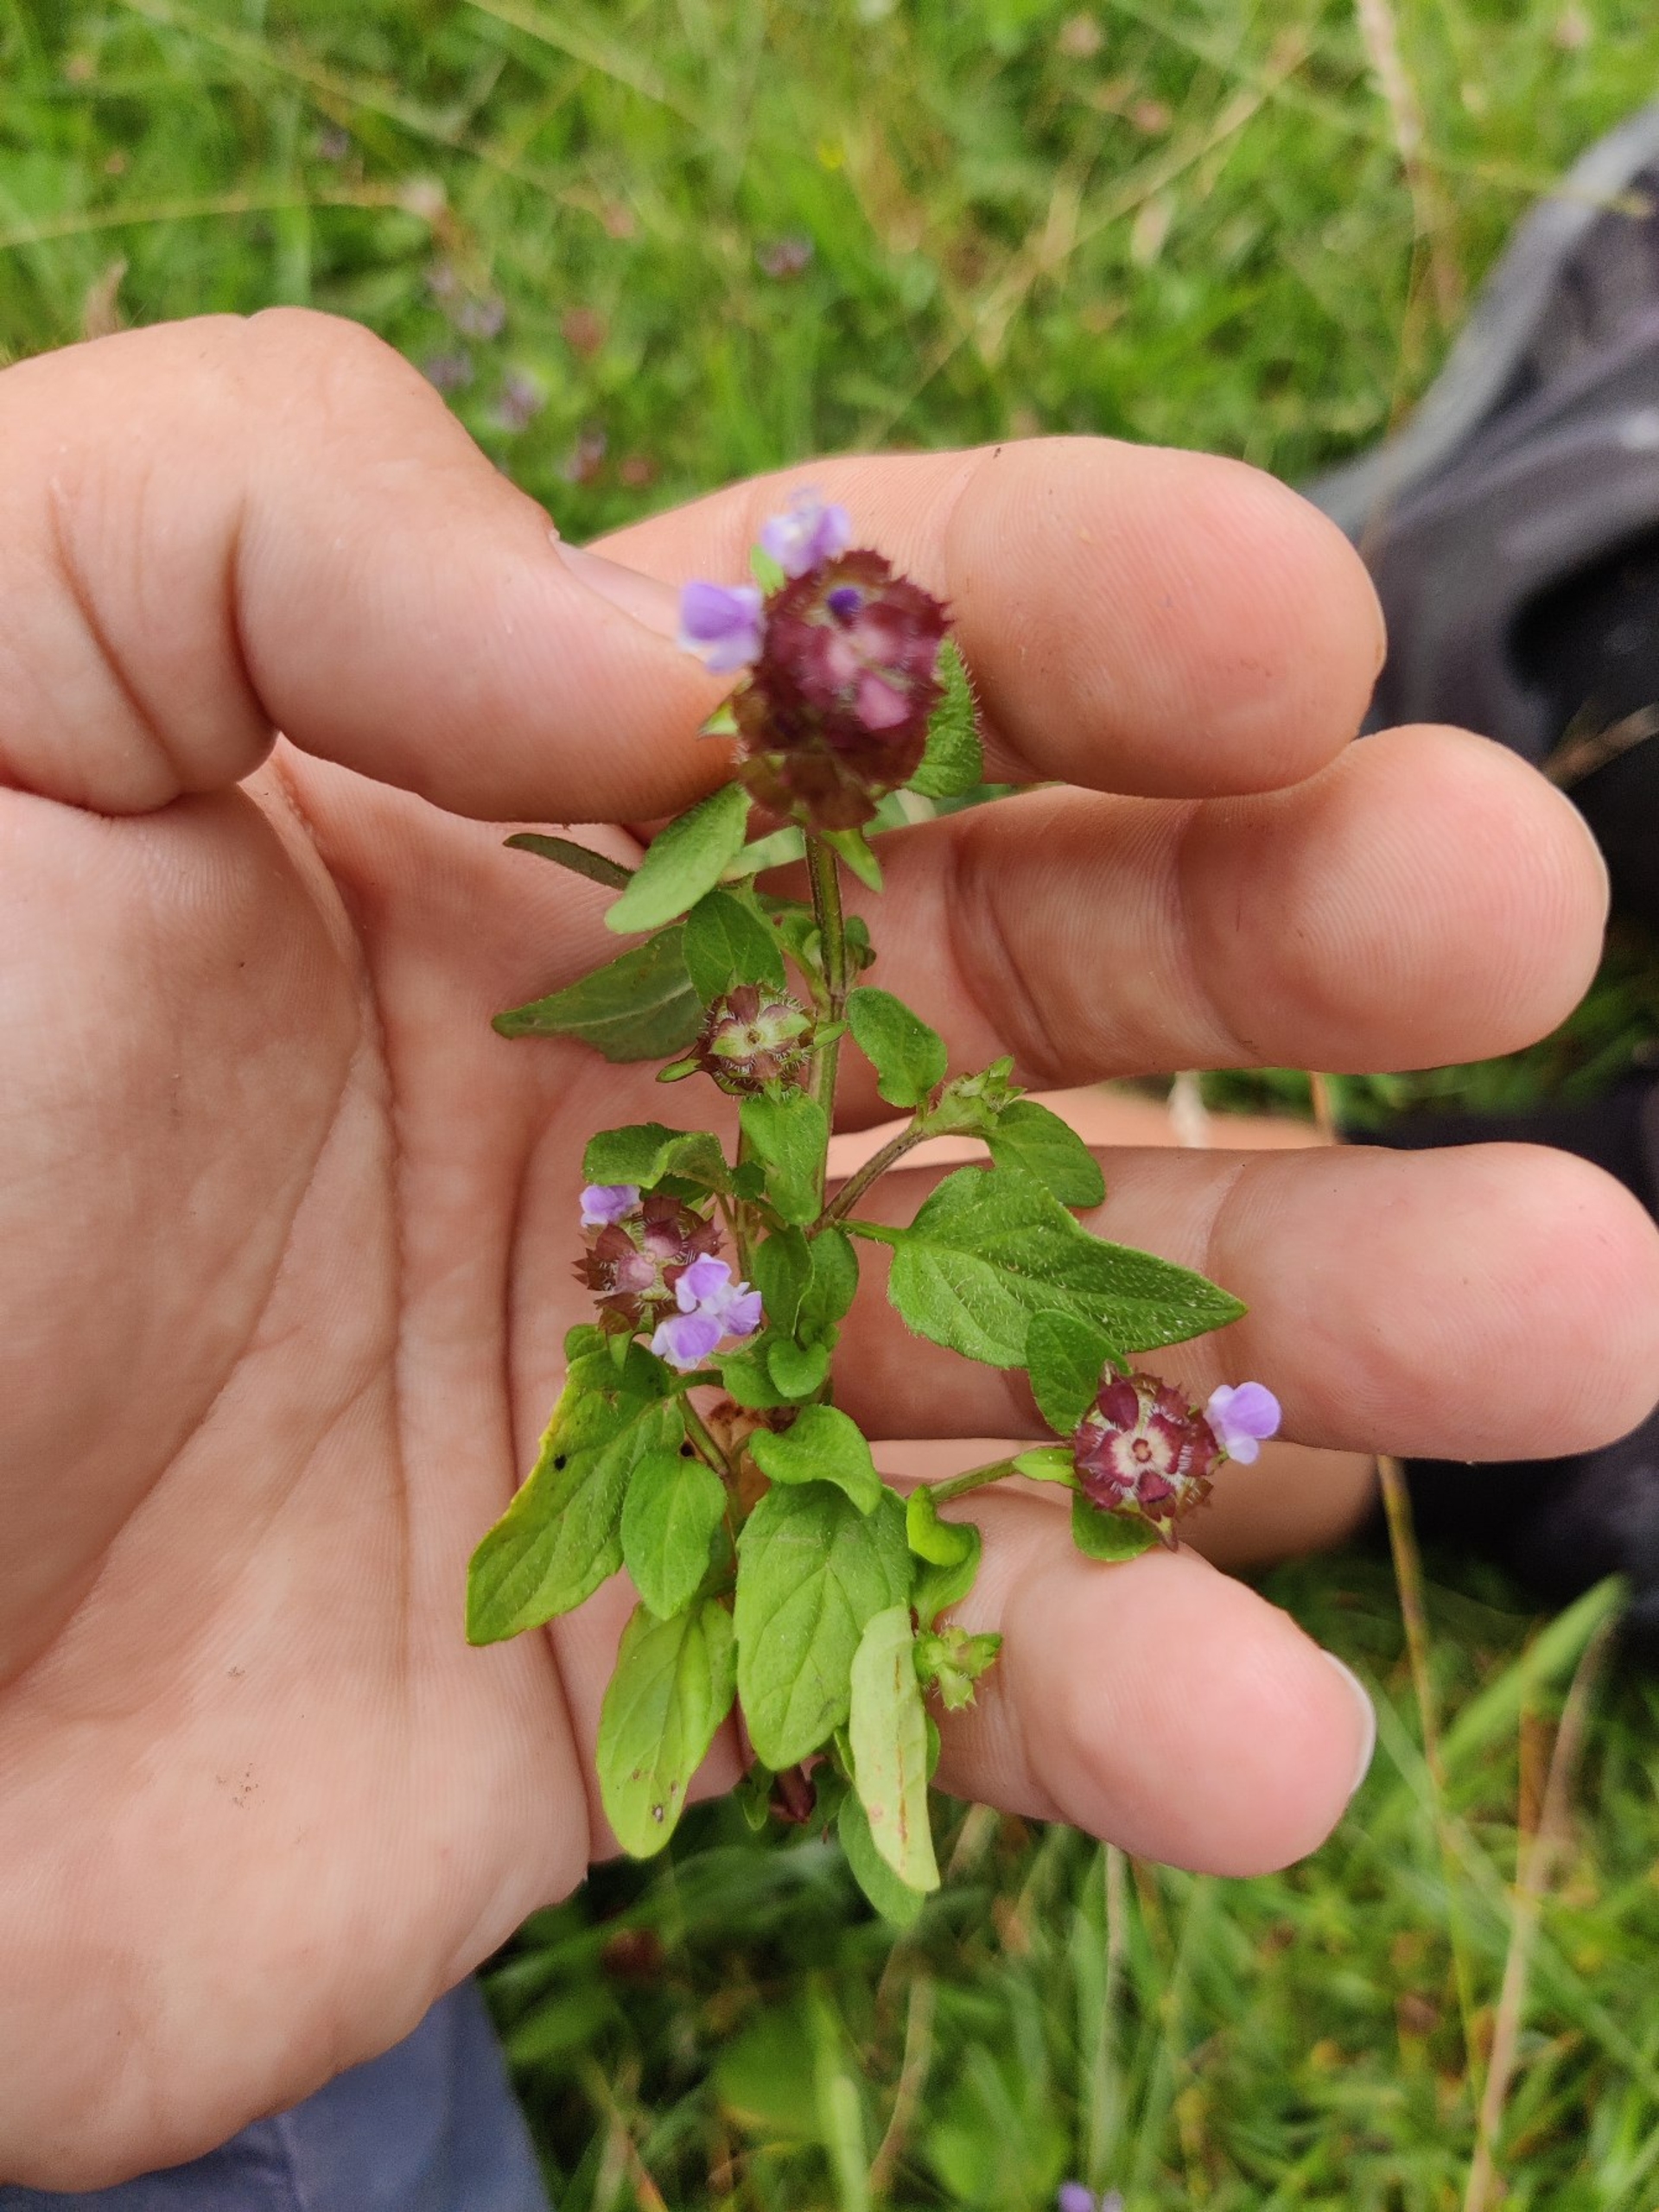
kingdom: Plantae
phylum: Tracheophyta
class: Magnoliopsida
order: Lamiales
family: Lamiaceae
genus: Prunella
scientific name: Prunella vulgaris
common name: Almindelig brunelle
